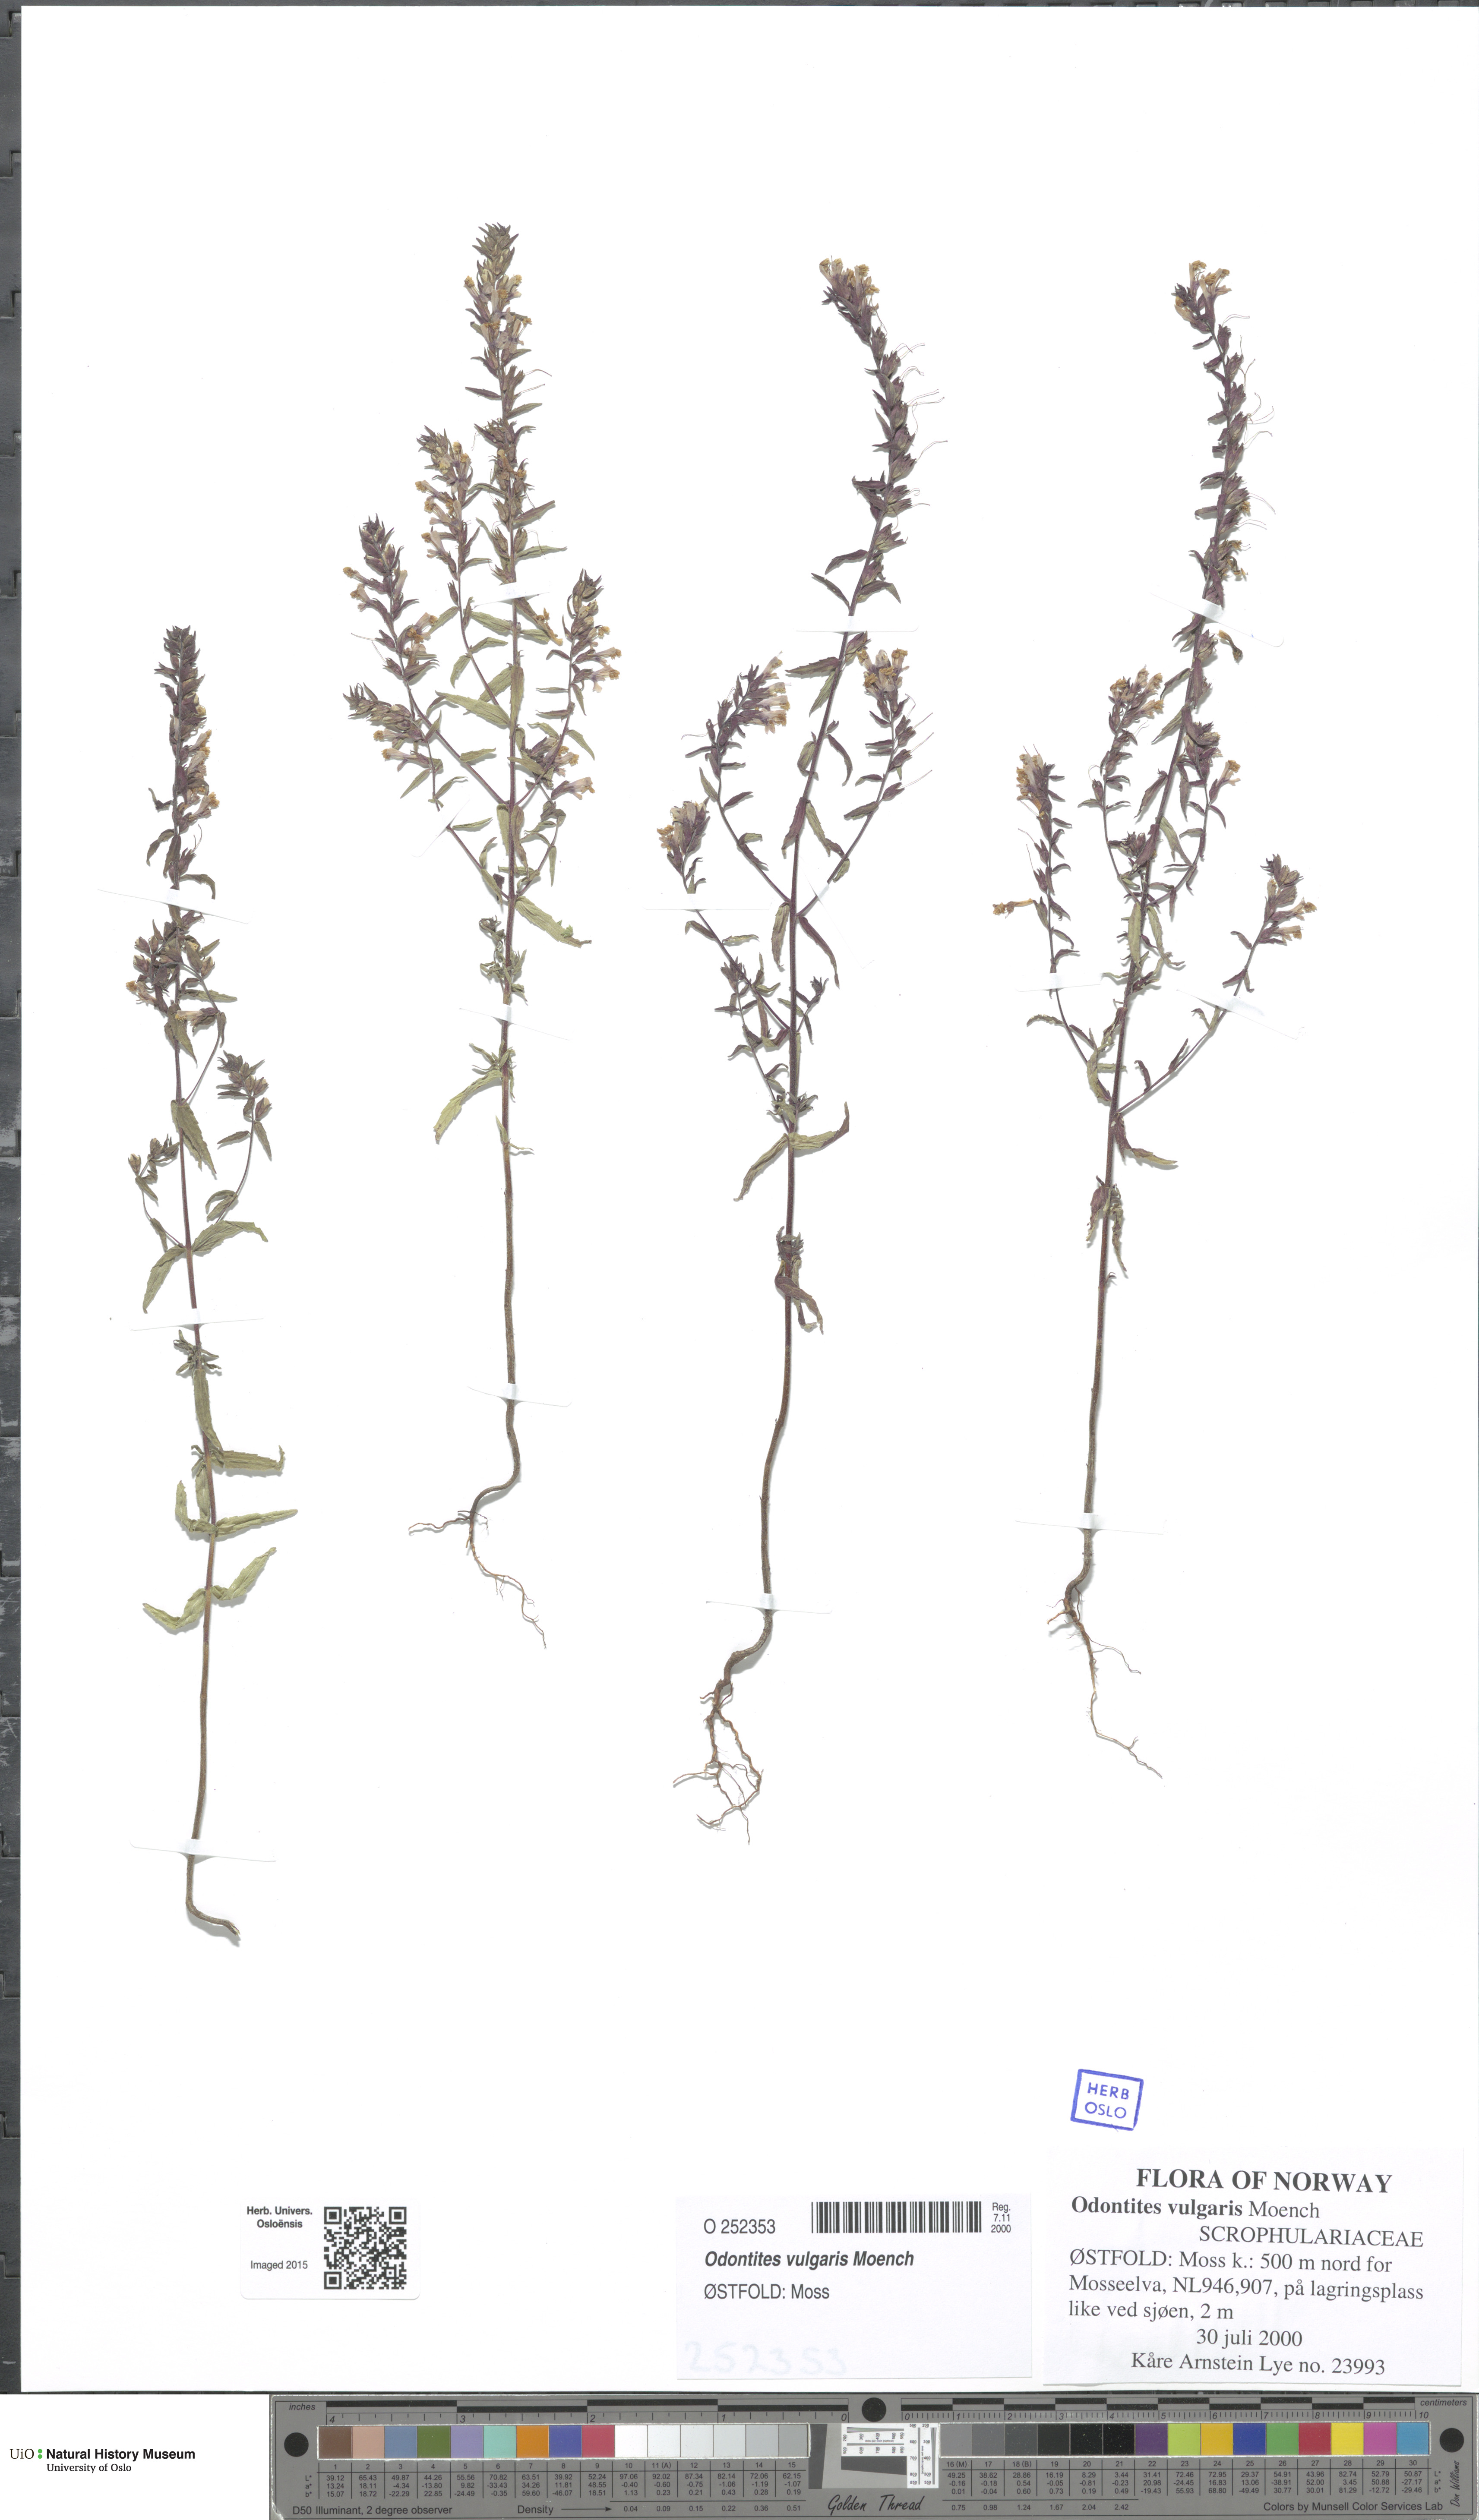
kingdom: Plantae
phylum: Tracheophyta
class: Magnoliopsida
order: Lamiales
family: Orobanchaceae
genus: Odontites
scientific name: Odontites vulgaris
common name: Broomrape
